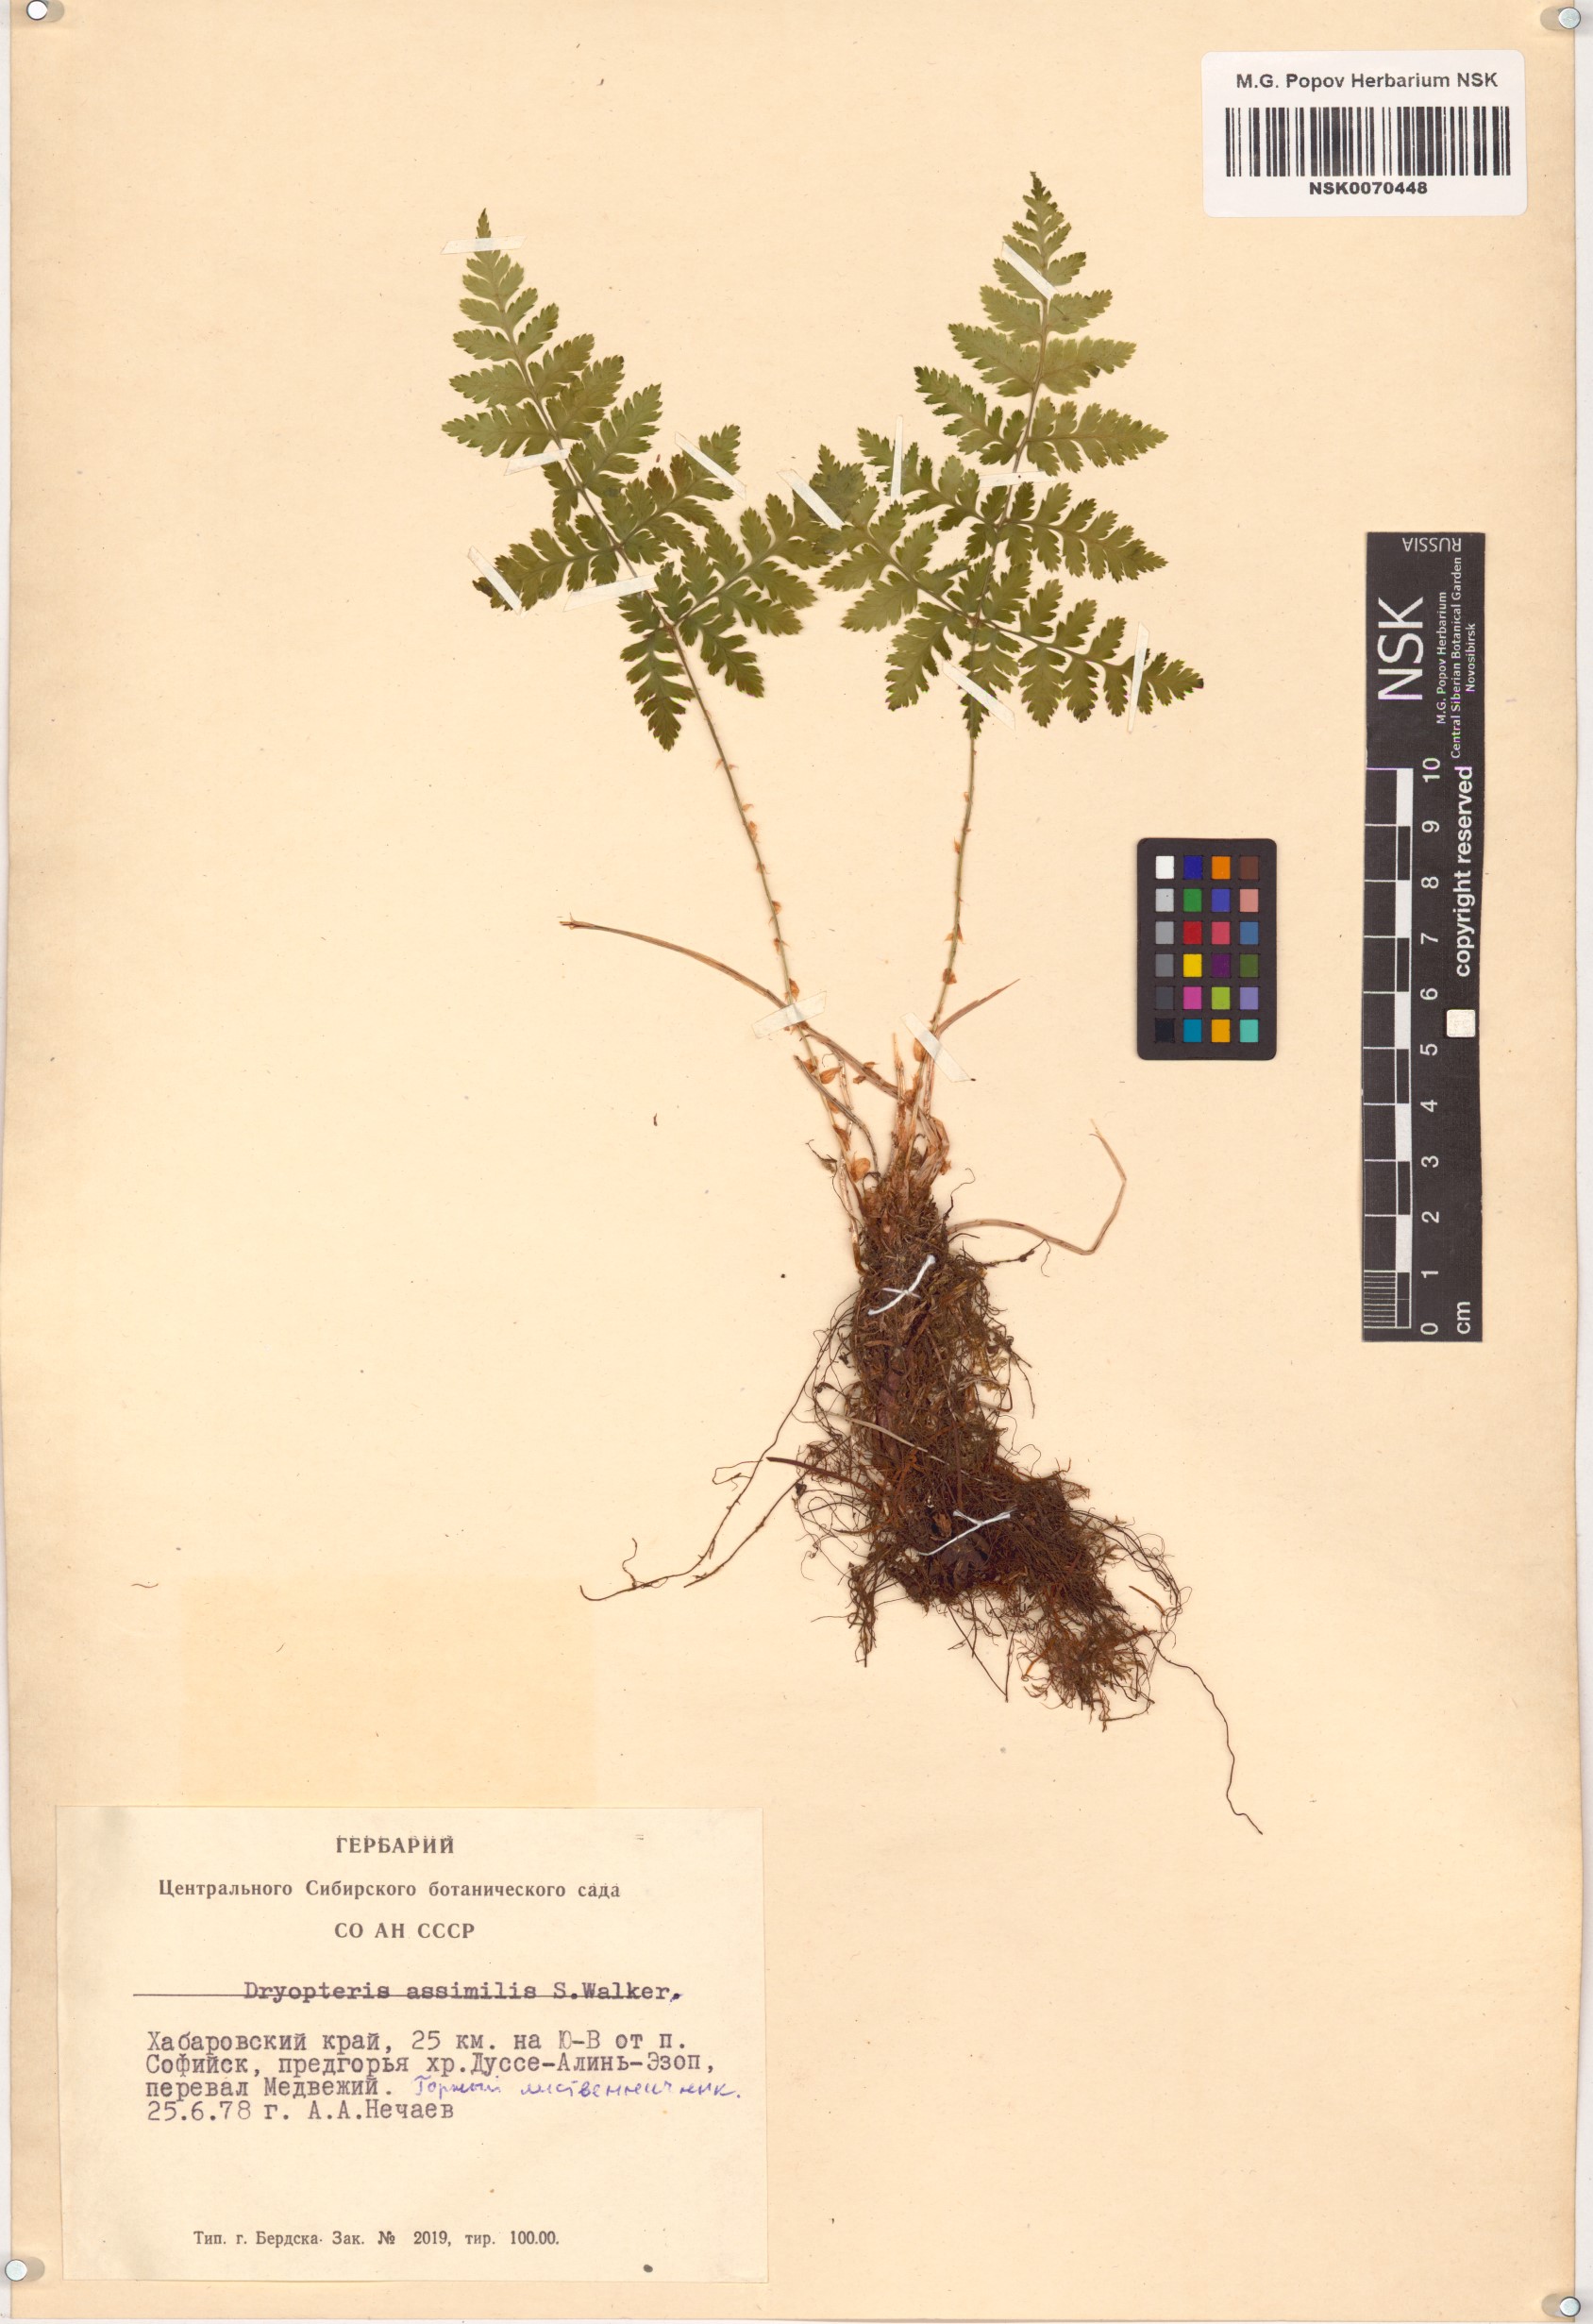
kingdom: Plantae
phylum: Tracheophyta
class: Polypodiopsida
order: Polypodiales
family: Dryopteridaceae
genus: Dryopteris
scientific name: Dryopteris expansa
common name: Northern buckler fern
